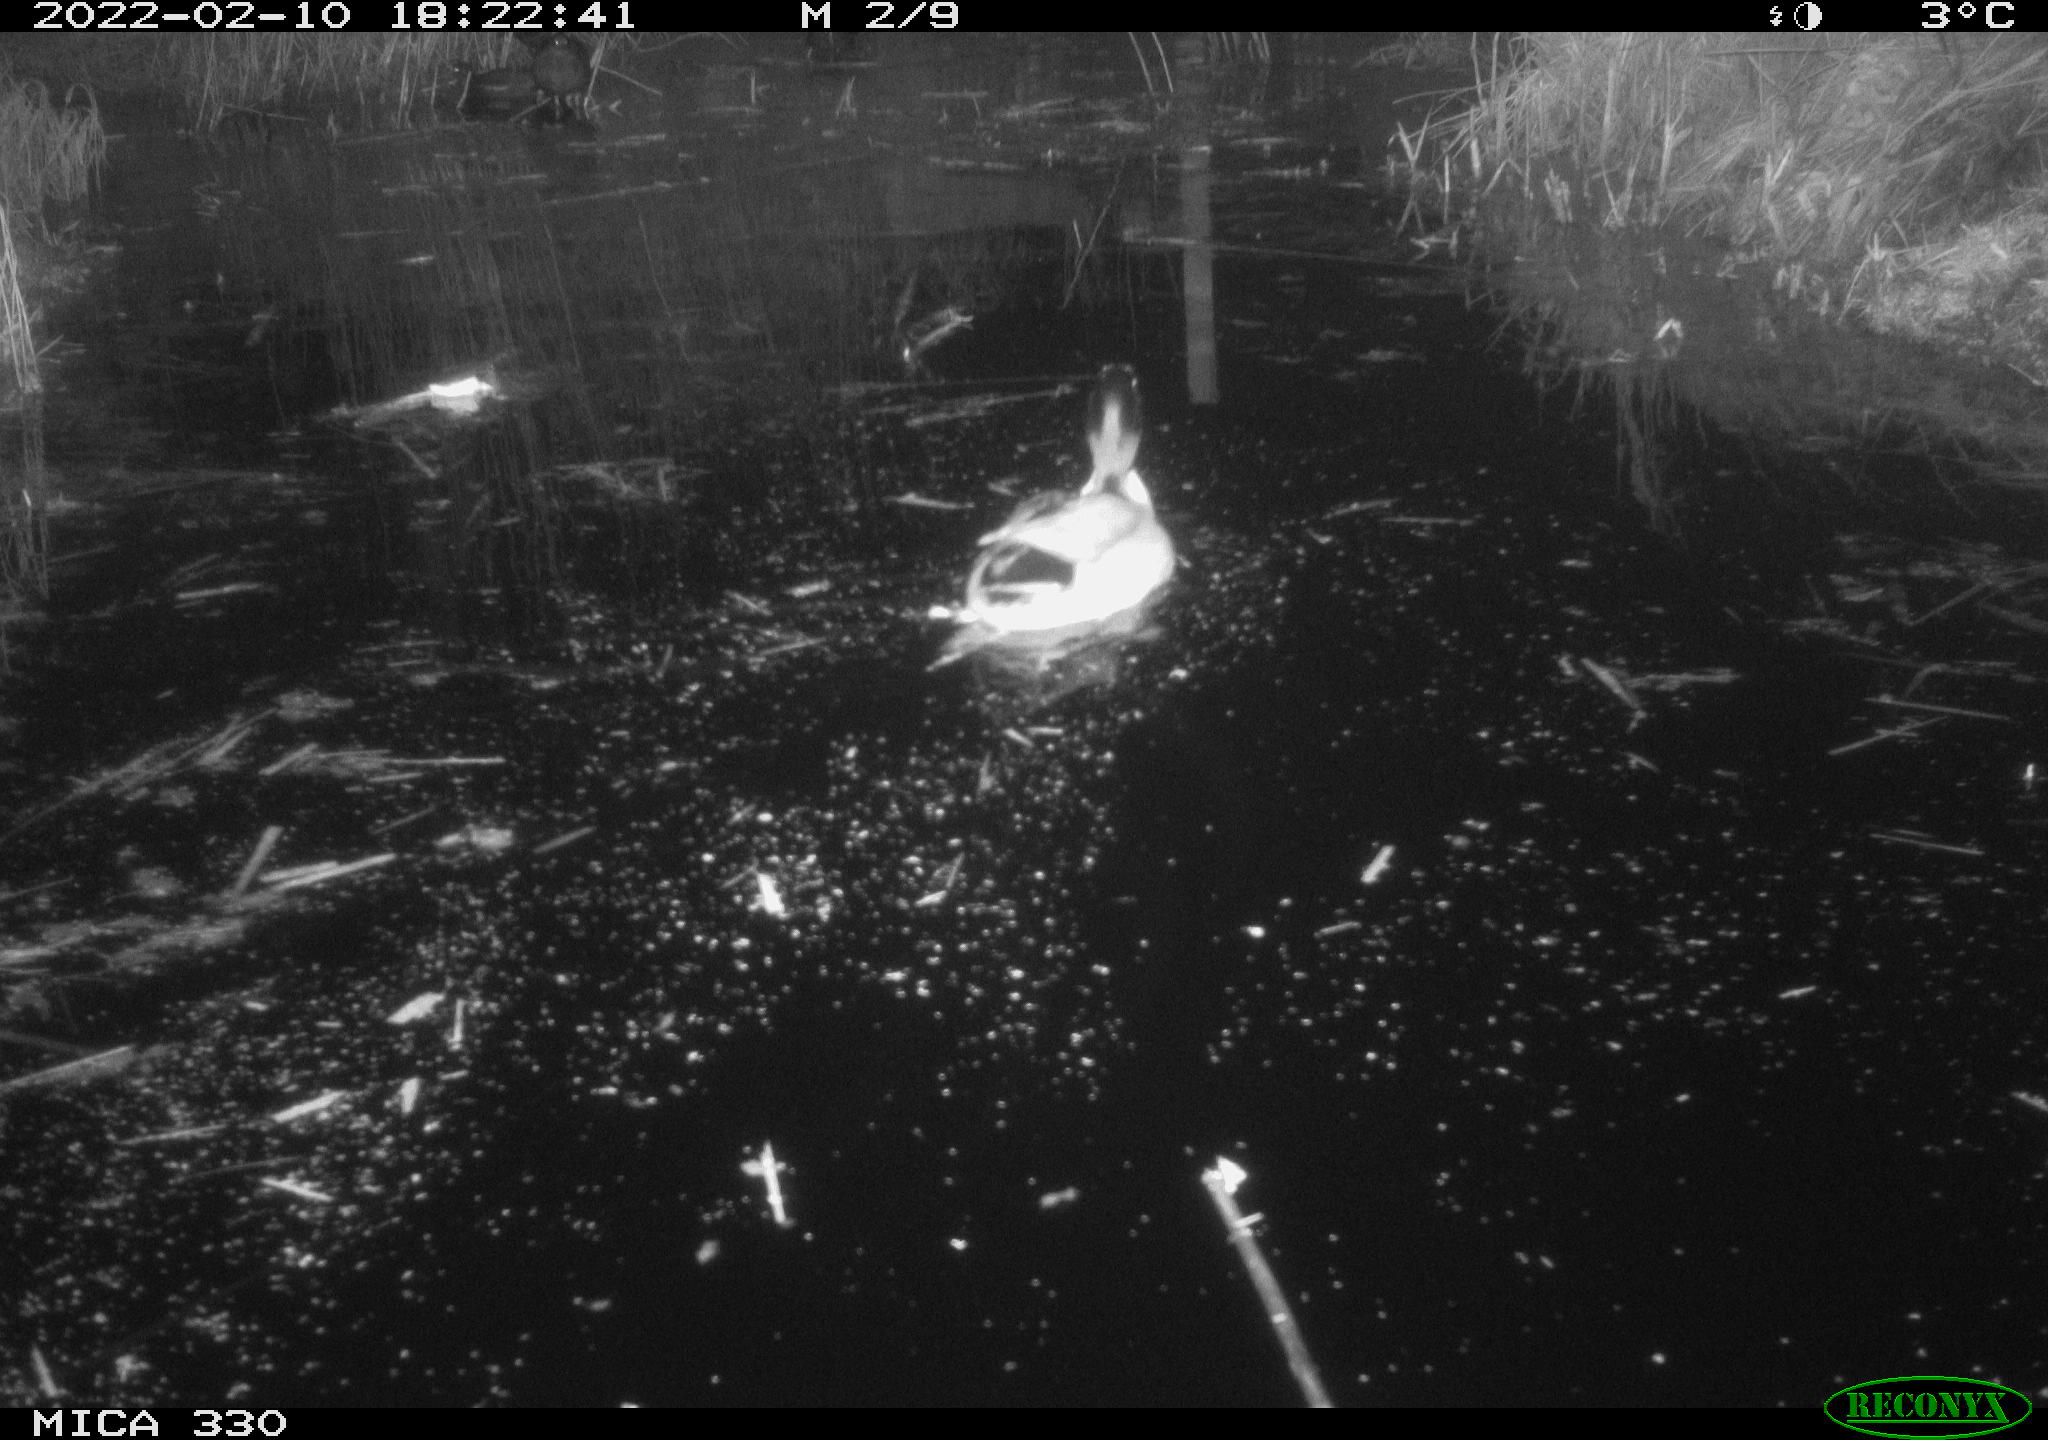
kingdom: Animalia
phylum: Chordata
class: Aves
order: Anseriformes
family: Anatidae
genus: Anas
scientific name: Anas platyrhynchos
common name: Mallard
